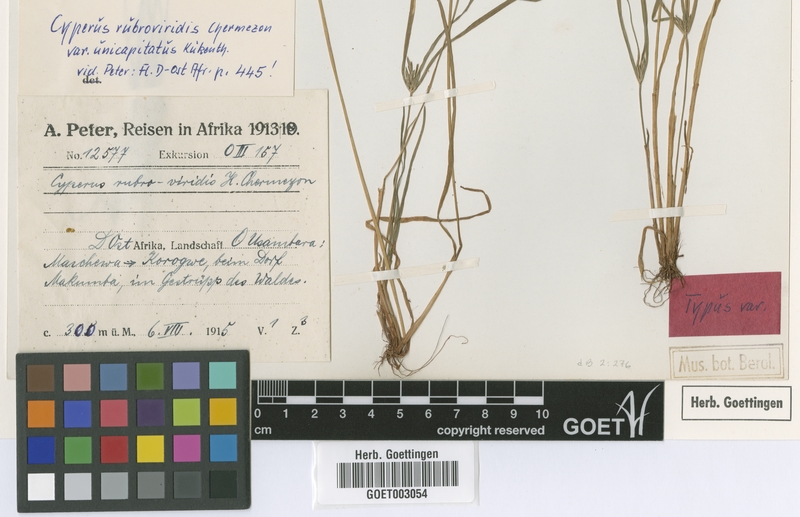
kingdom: Plantae
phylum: Tracheophyta
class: Liliopsida
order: Poales
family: Cyperaceae
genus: Cyperus
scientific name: Cyperus zollingeri
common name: Roadside flatsedge
